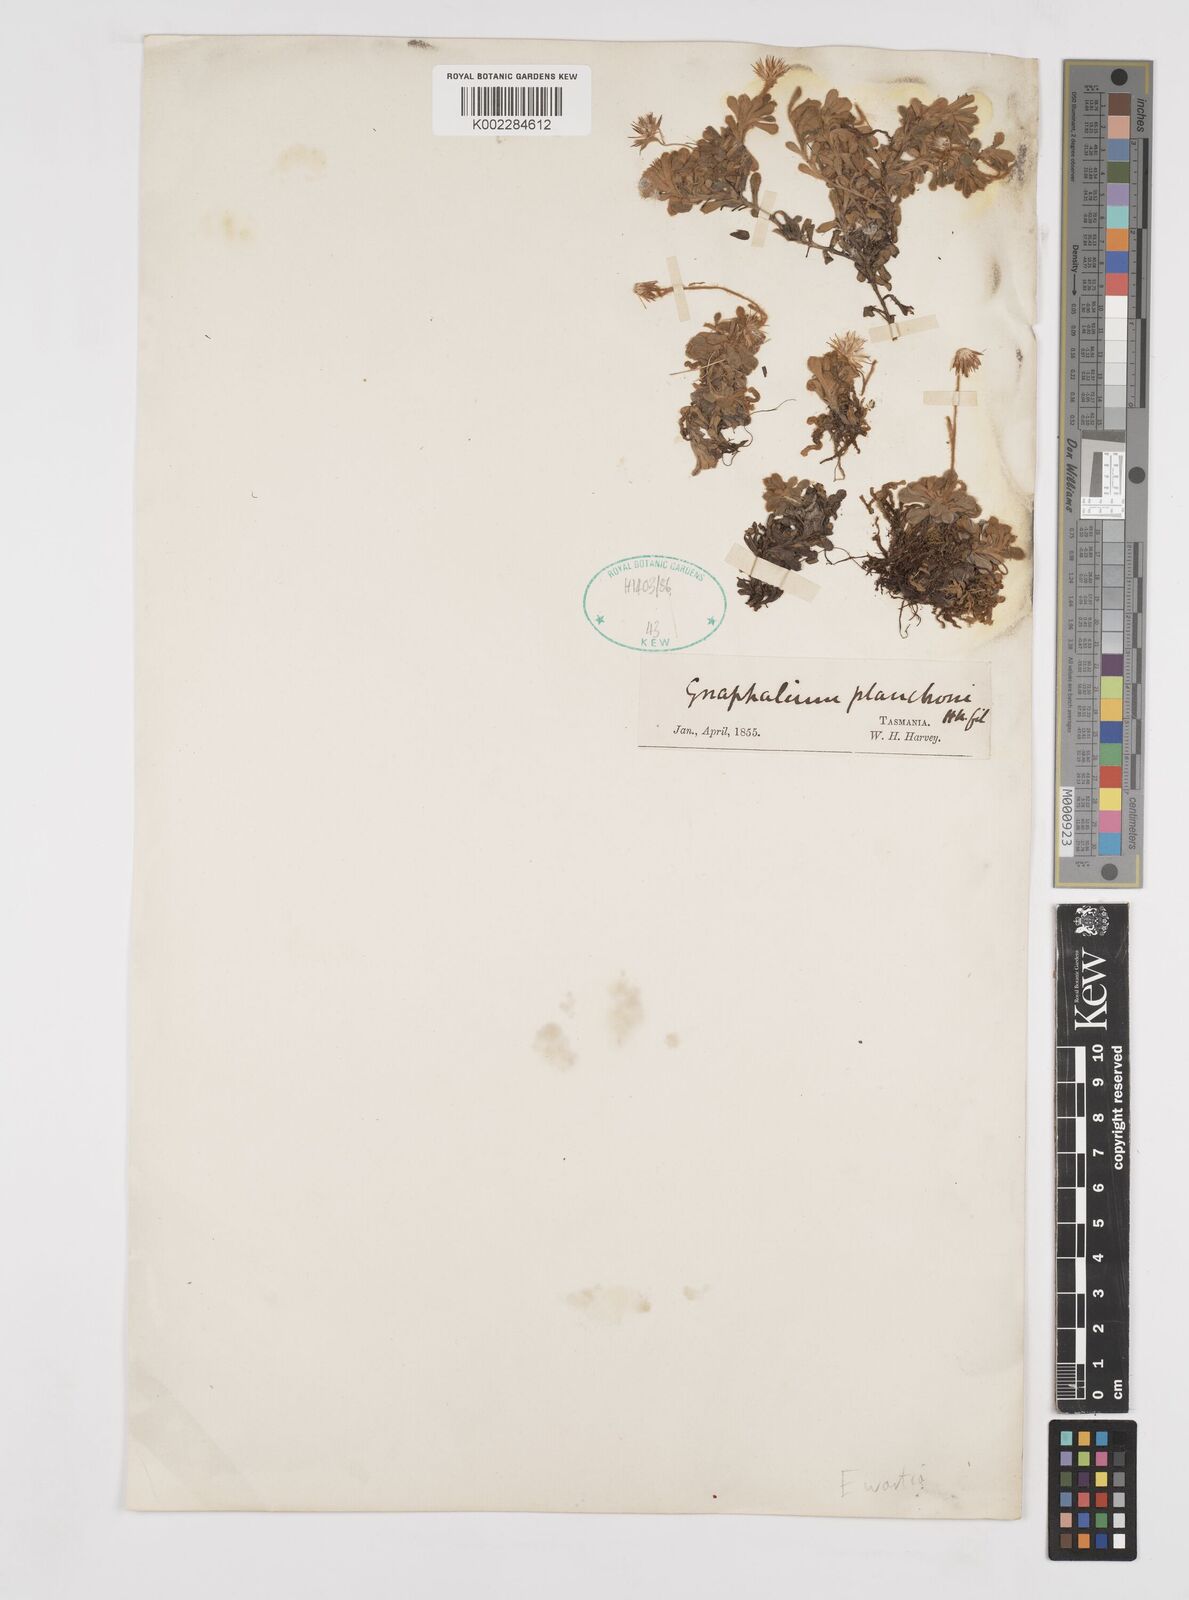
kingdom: Plantae
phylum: Tracheophyta
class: Magnoliopsida
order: Asterales
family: Asteraceae
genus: Ewartia
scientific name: Ewartia planchonii
